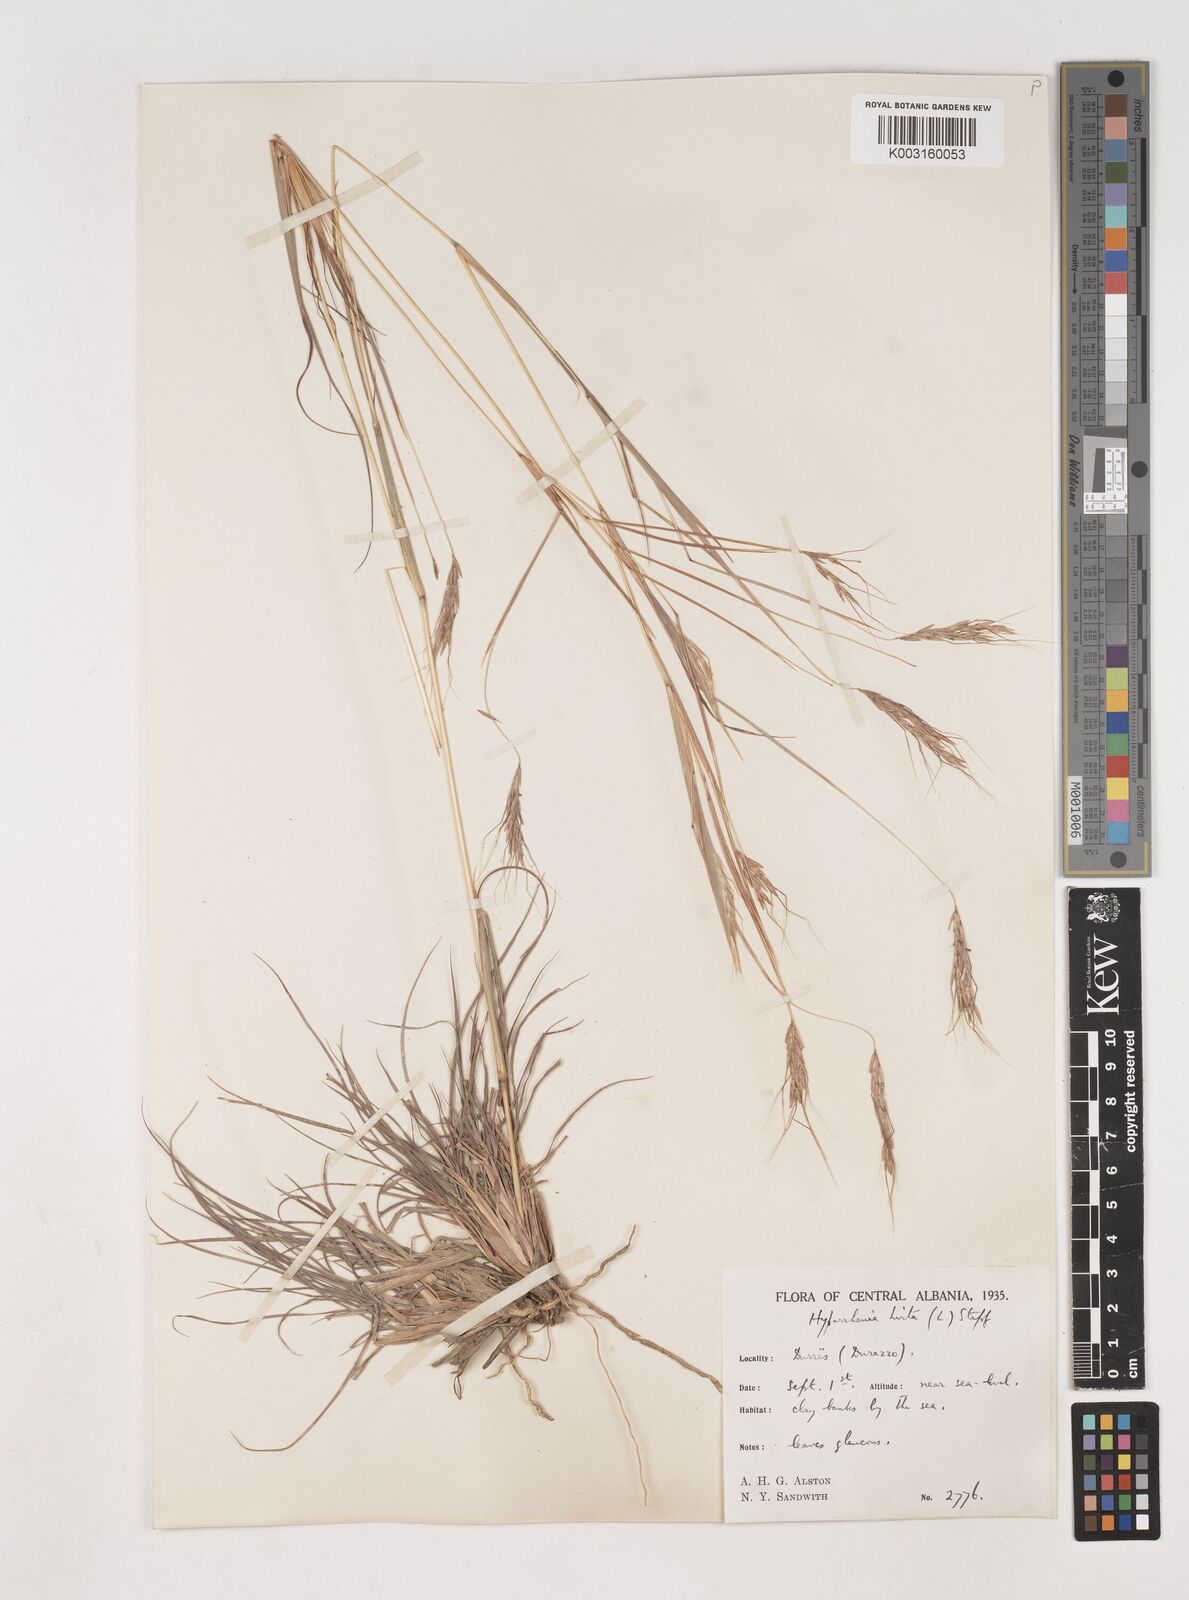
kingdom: Plantae
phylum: Tracheophyta
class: Liliopsida
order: Poales
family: Poaceae
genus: Hyparrhenia
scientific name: Hyparrhenia hirta
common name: Thatching grass
